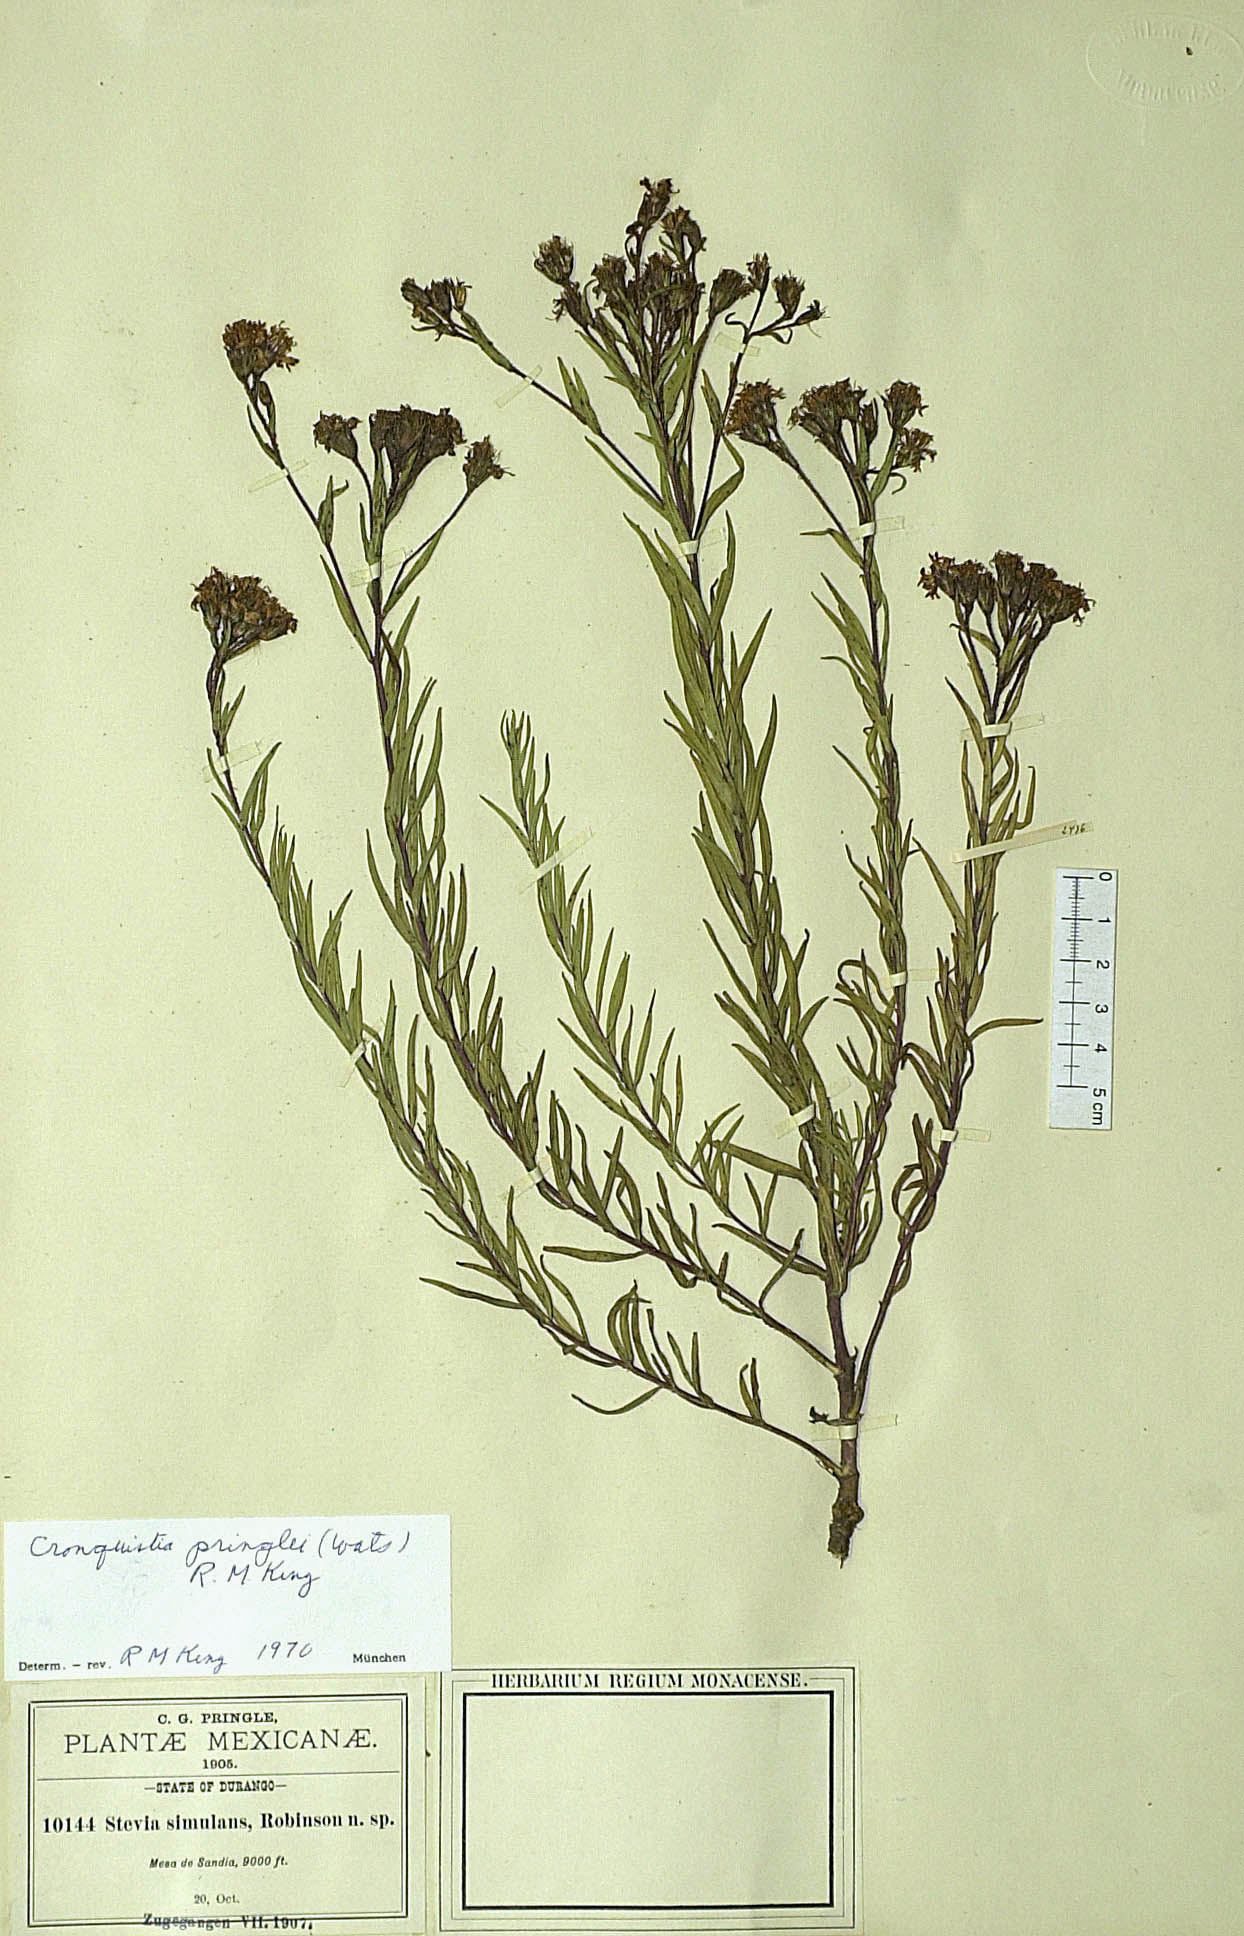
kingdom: Plantae
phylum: Tracheophyta
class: Magnoliopsida
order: Asterales
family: Asteraceae
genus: Carphochaete
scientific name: Carphochaete pringlei
